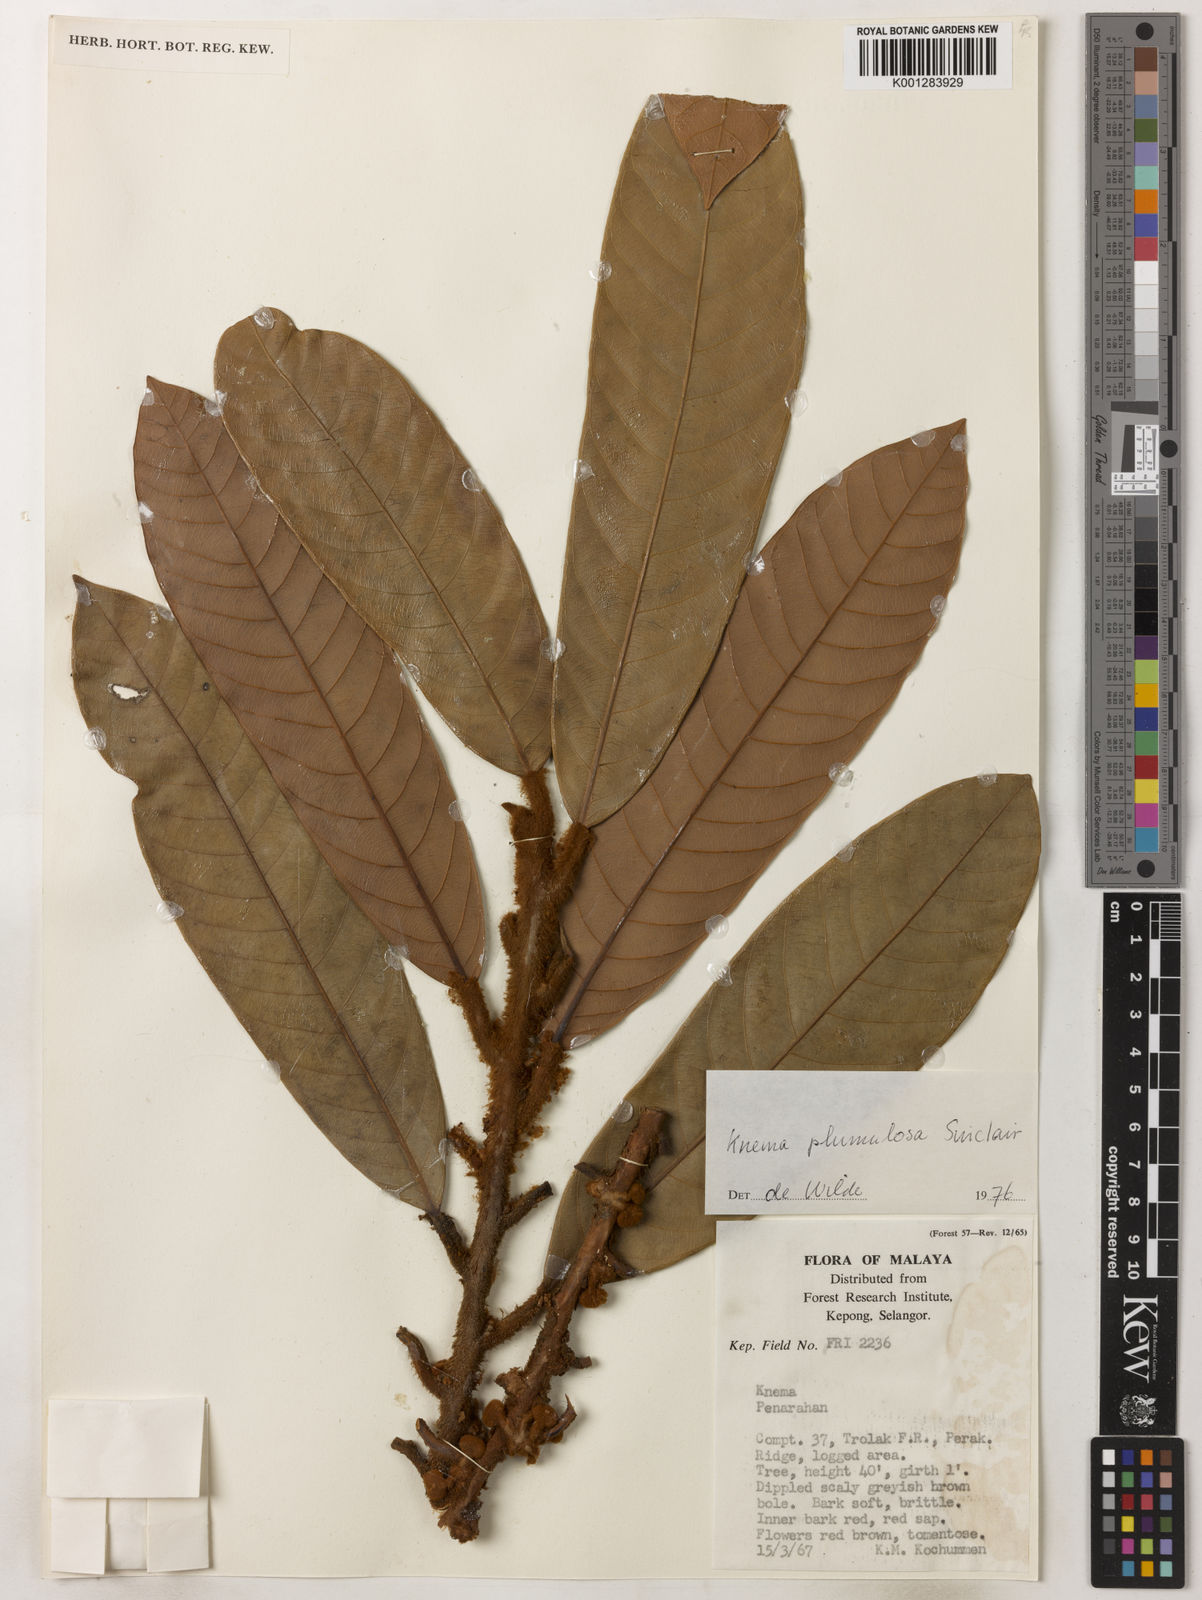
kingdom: Plantae
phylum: Tracheophyta
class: Magnoliopsida
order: Magnoliales
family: Myristicaceae
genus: Knema
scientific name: Knema plumulosa
